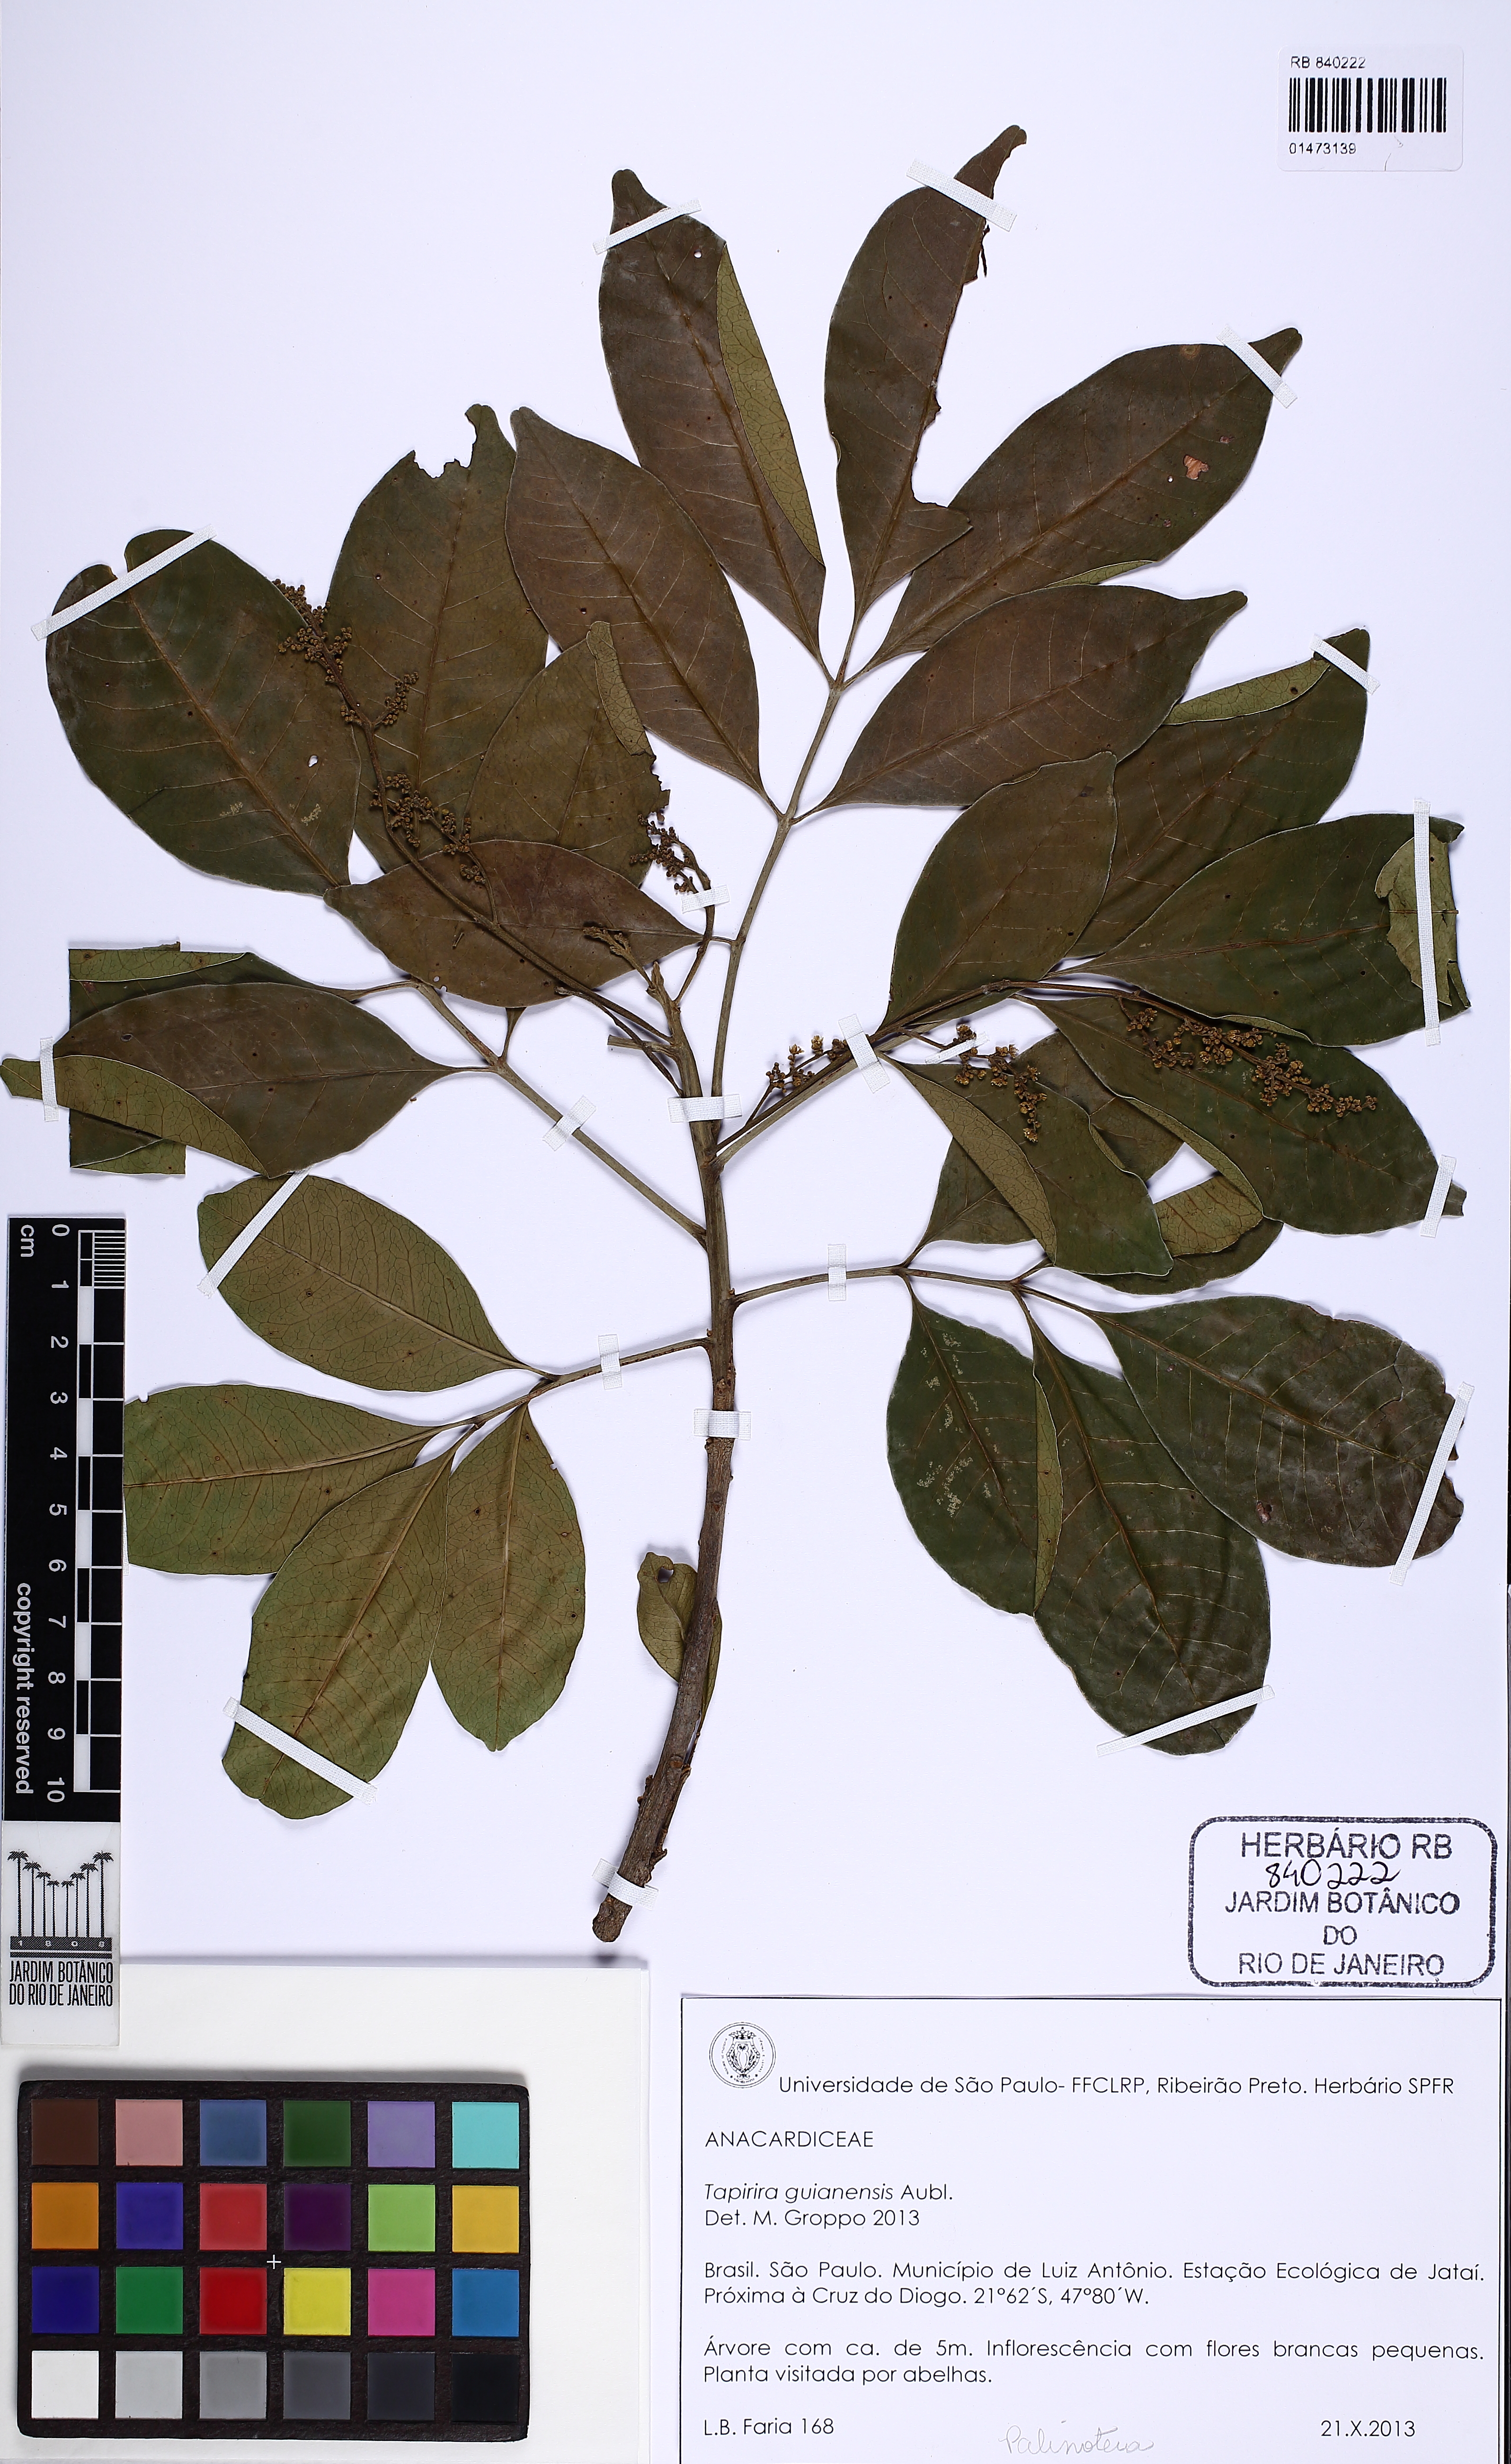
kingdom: Plantae
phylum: Tracheophyta
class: Magnoliopsida
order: Sapindales
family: Anacardiaceae
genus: Tapirira
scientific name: Tapirira guianensis
